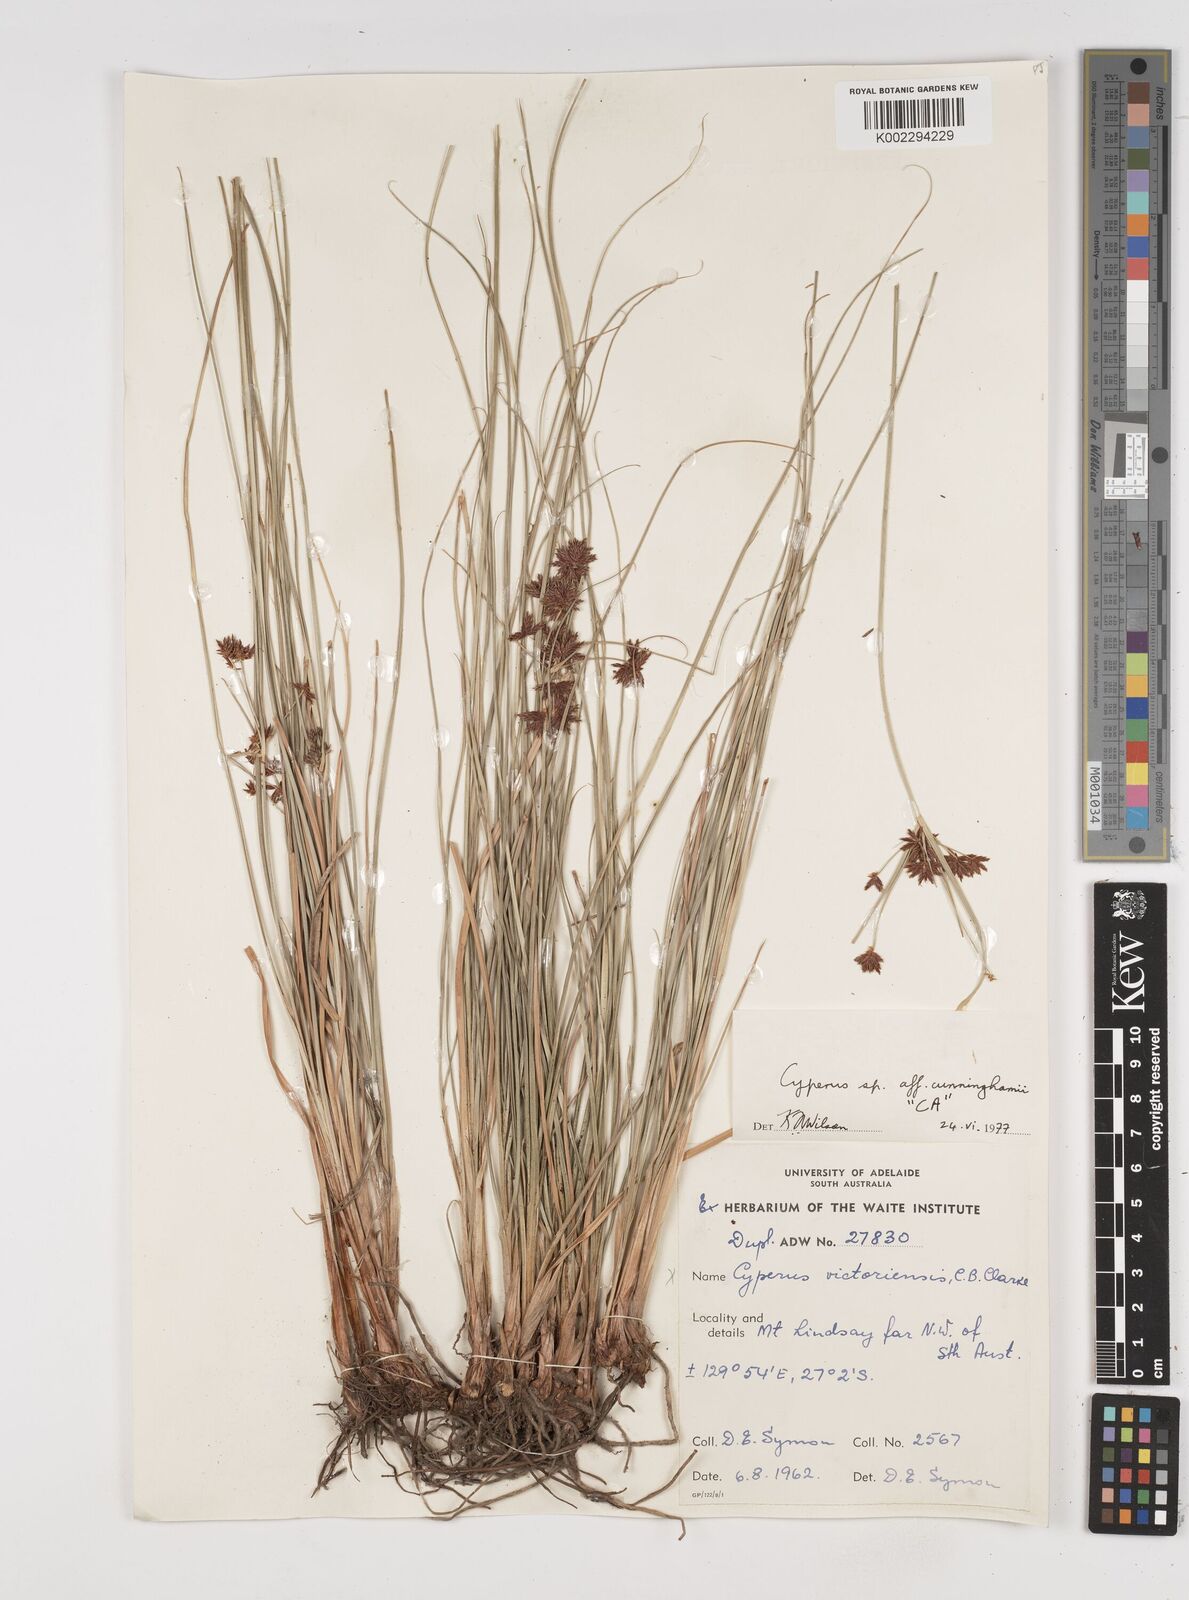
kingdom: Plantae
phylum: Tracheophyta
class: Liliopsida
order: Poales
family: Cyperaceae
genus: Cyperus
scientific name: Cyperus cunninghamii
